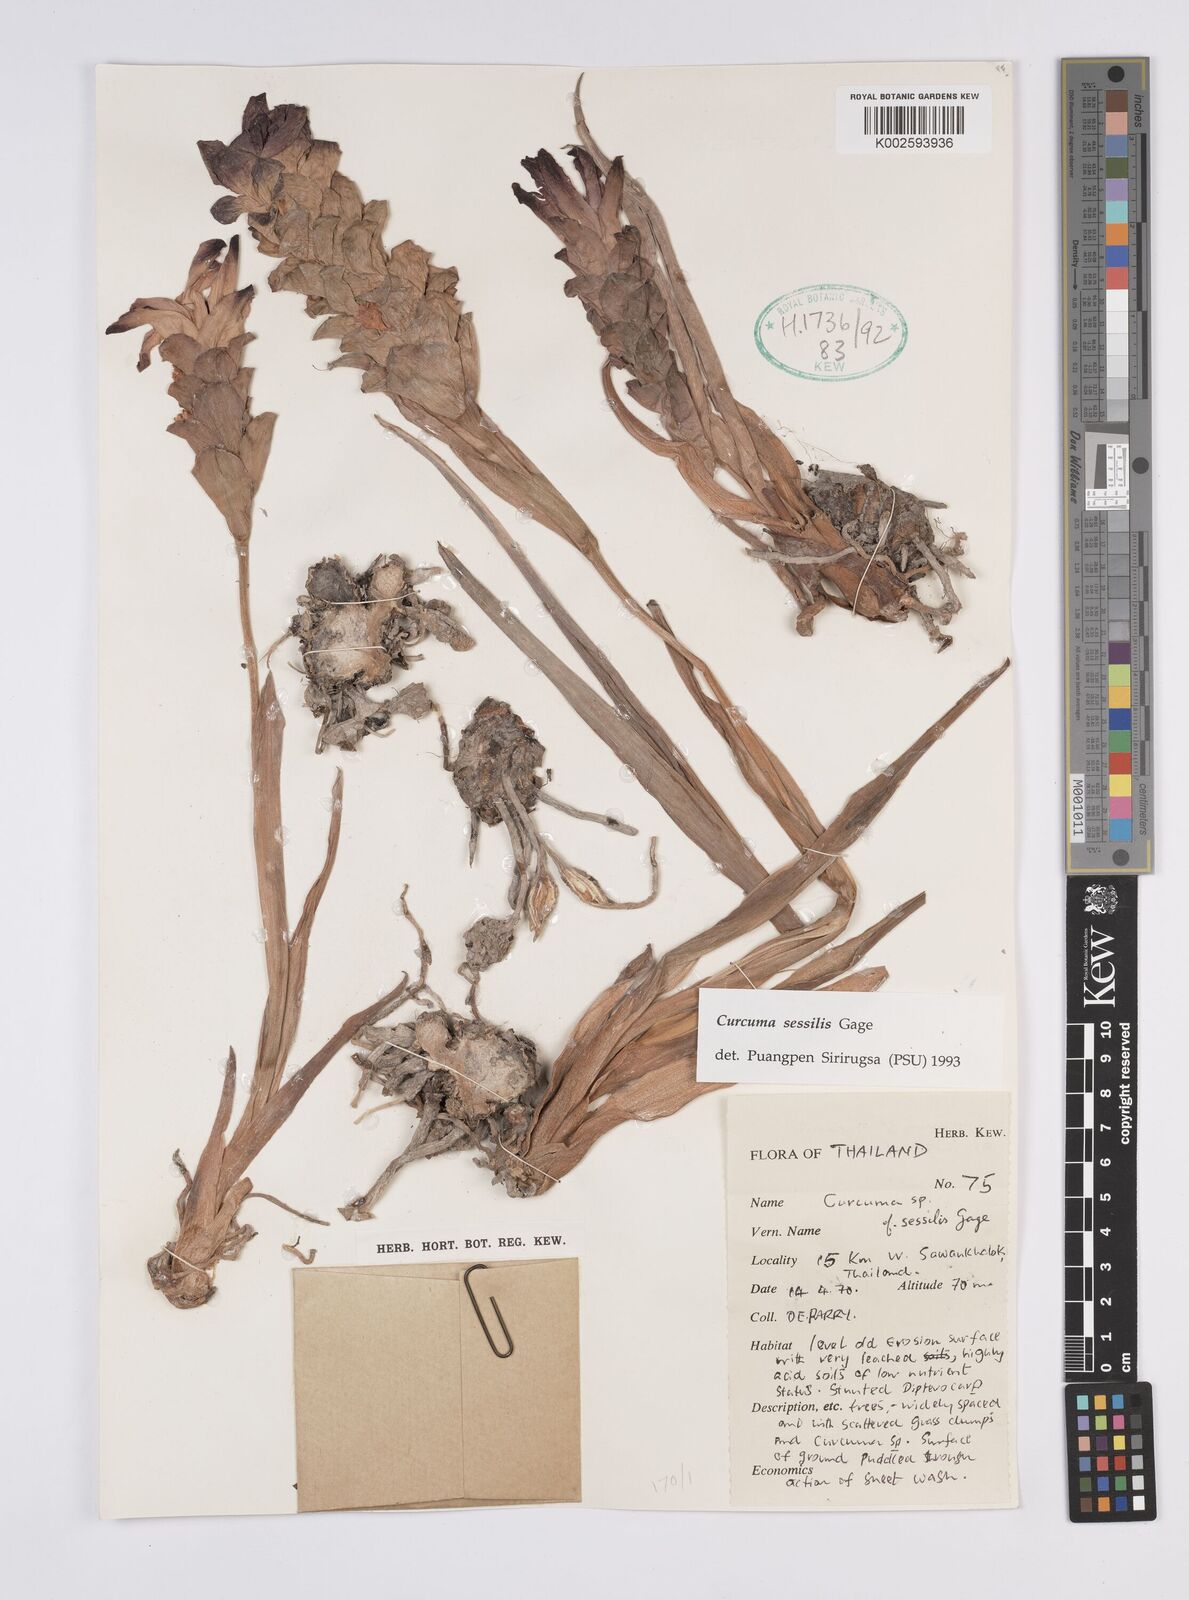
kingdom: Plantae
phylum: Tracheophyta
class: Liliopsida
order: Zingiberales
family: Zingiberaceae
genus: Curcuma
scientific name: Curcuma sessilis
